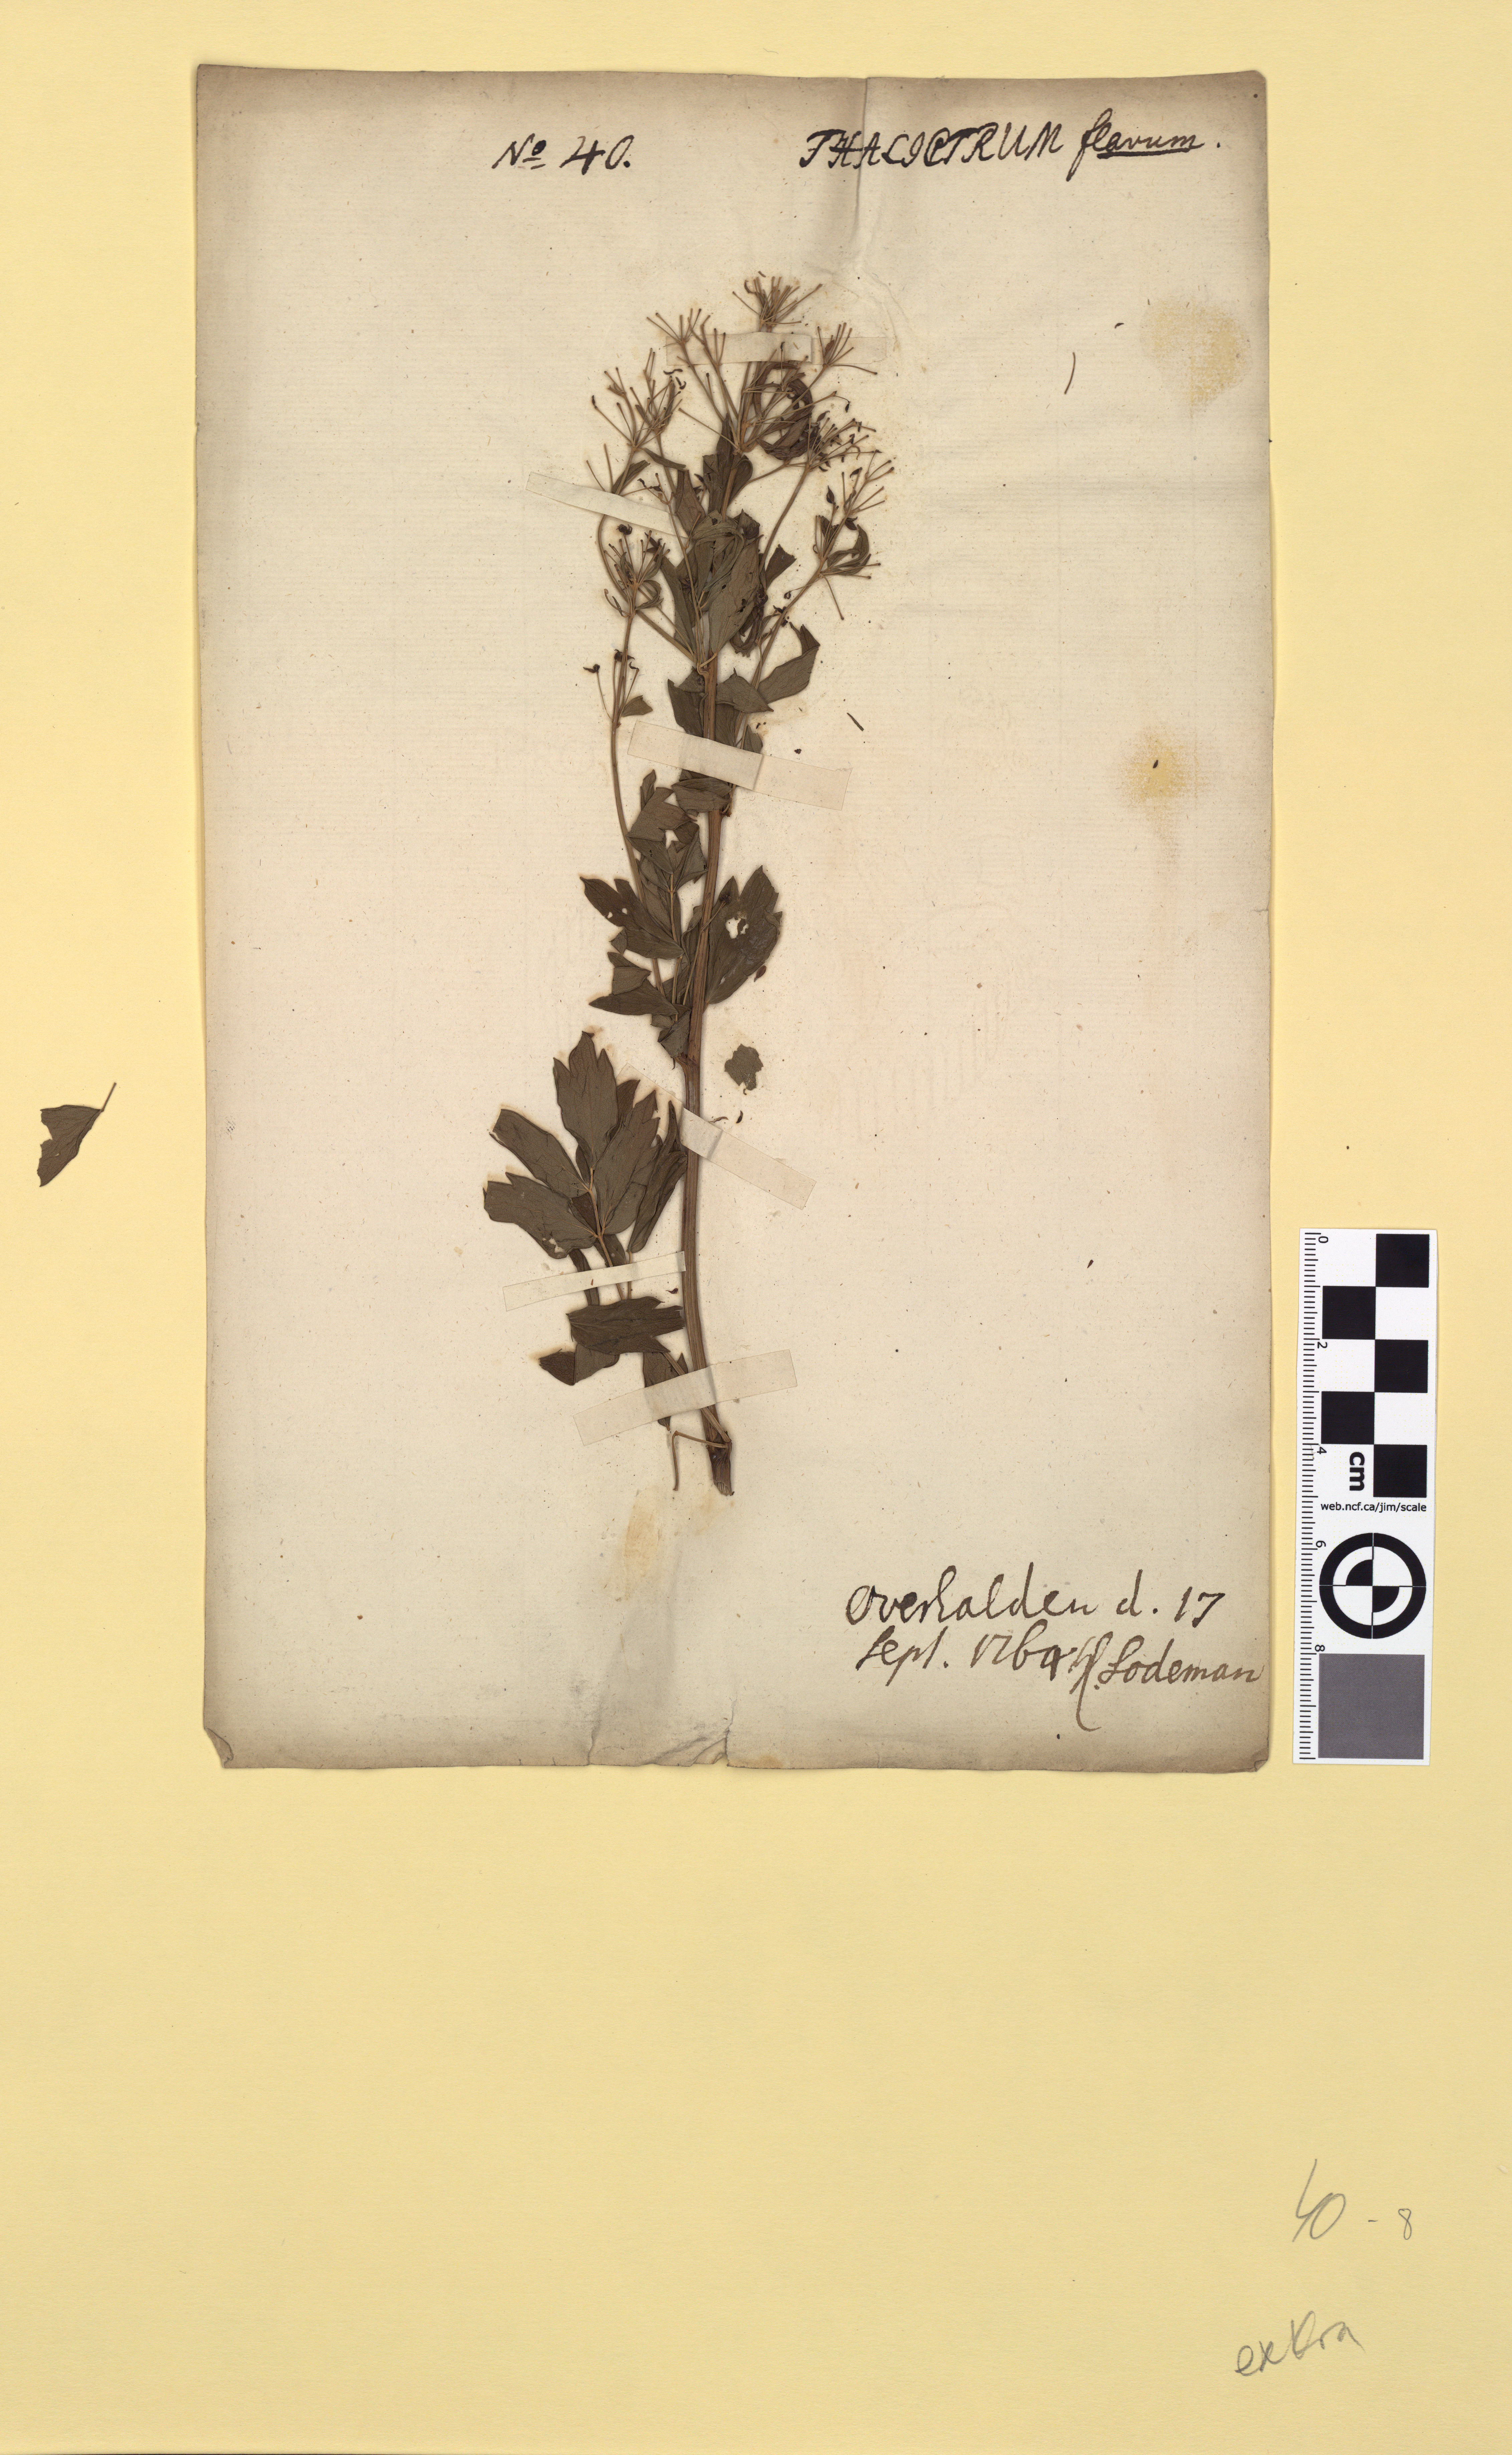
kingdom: Plantae
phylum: Tracheophyta
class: Magnoliopsida
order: Ranunculales
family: Ranunculaceae
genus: Thalictrum
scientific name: Thalictrum flavum
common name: Common meadow-rue
